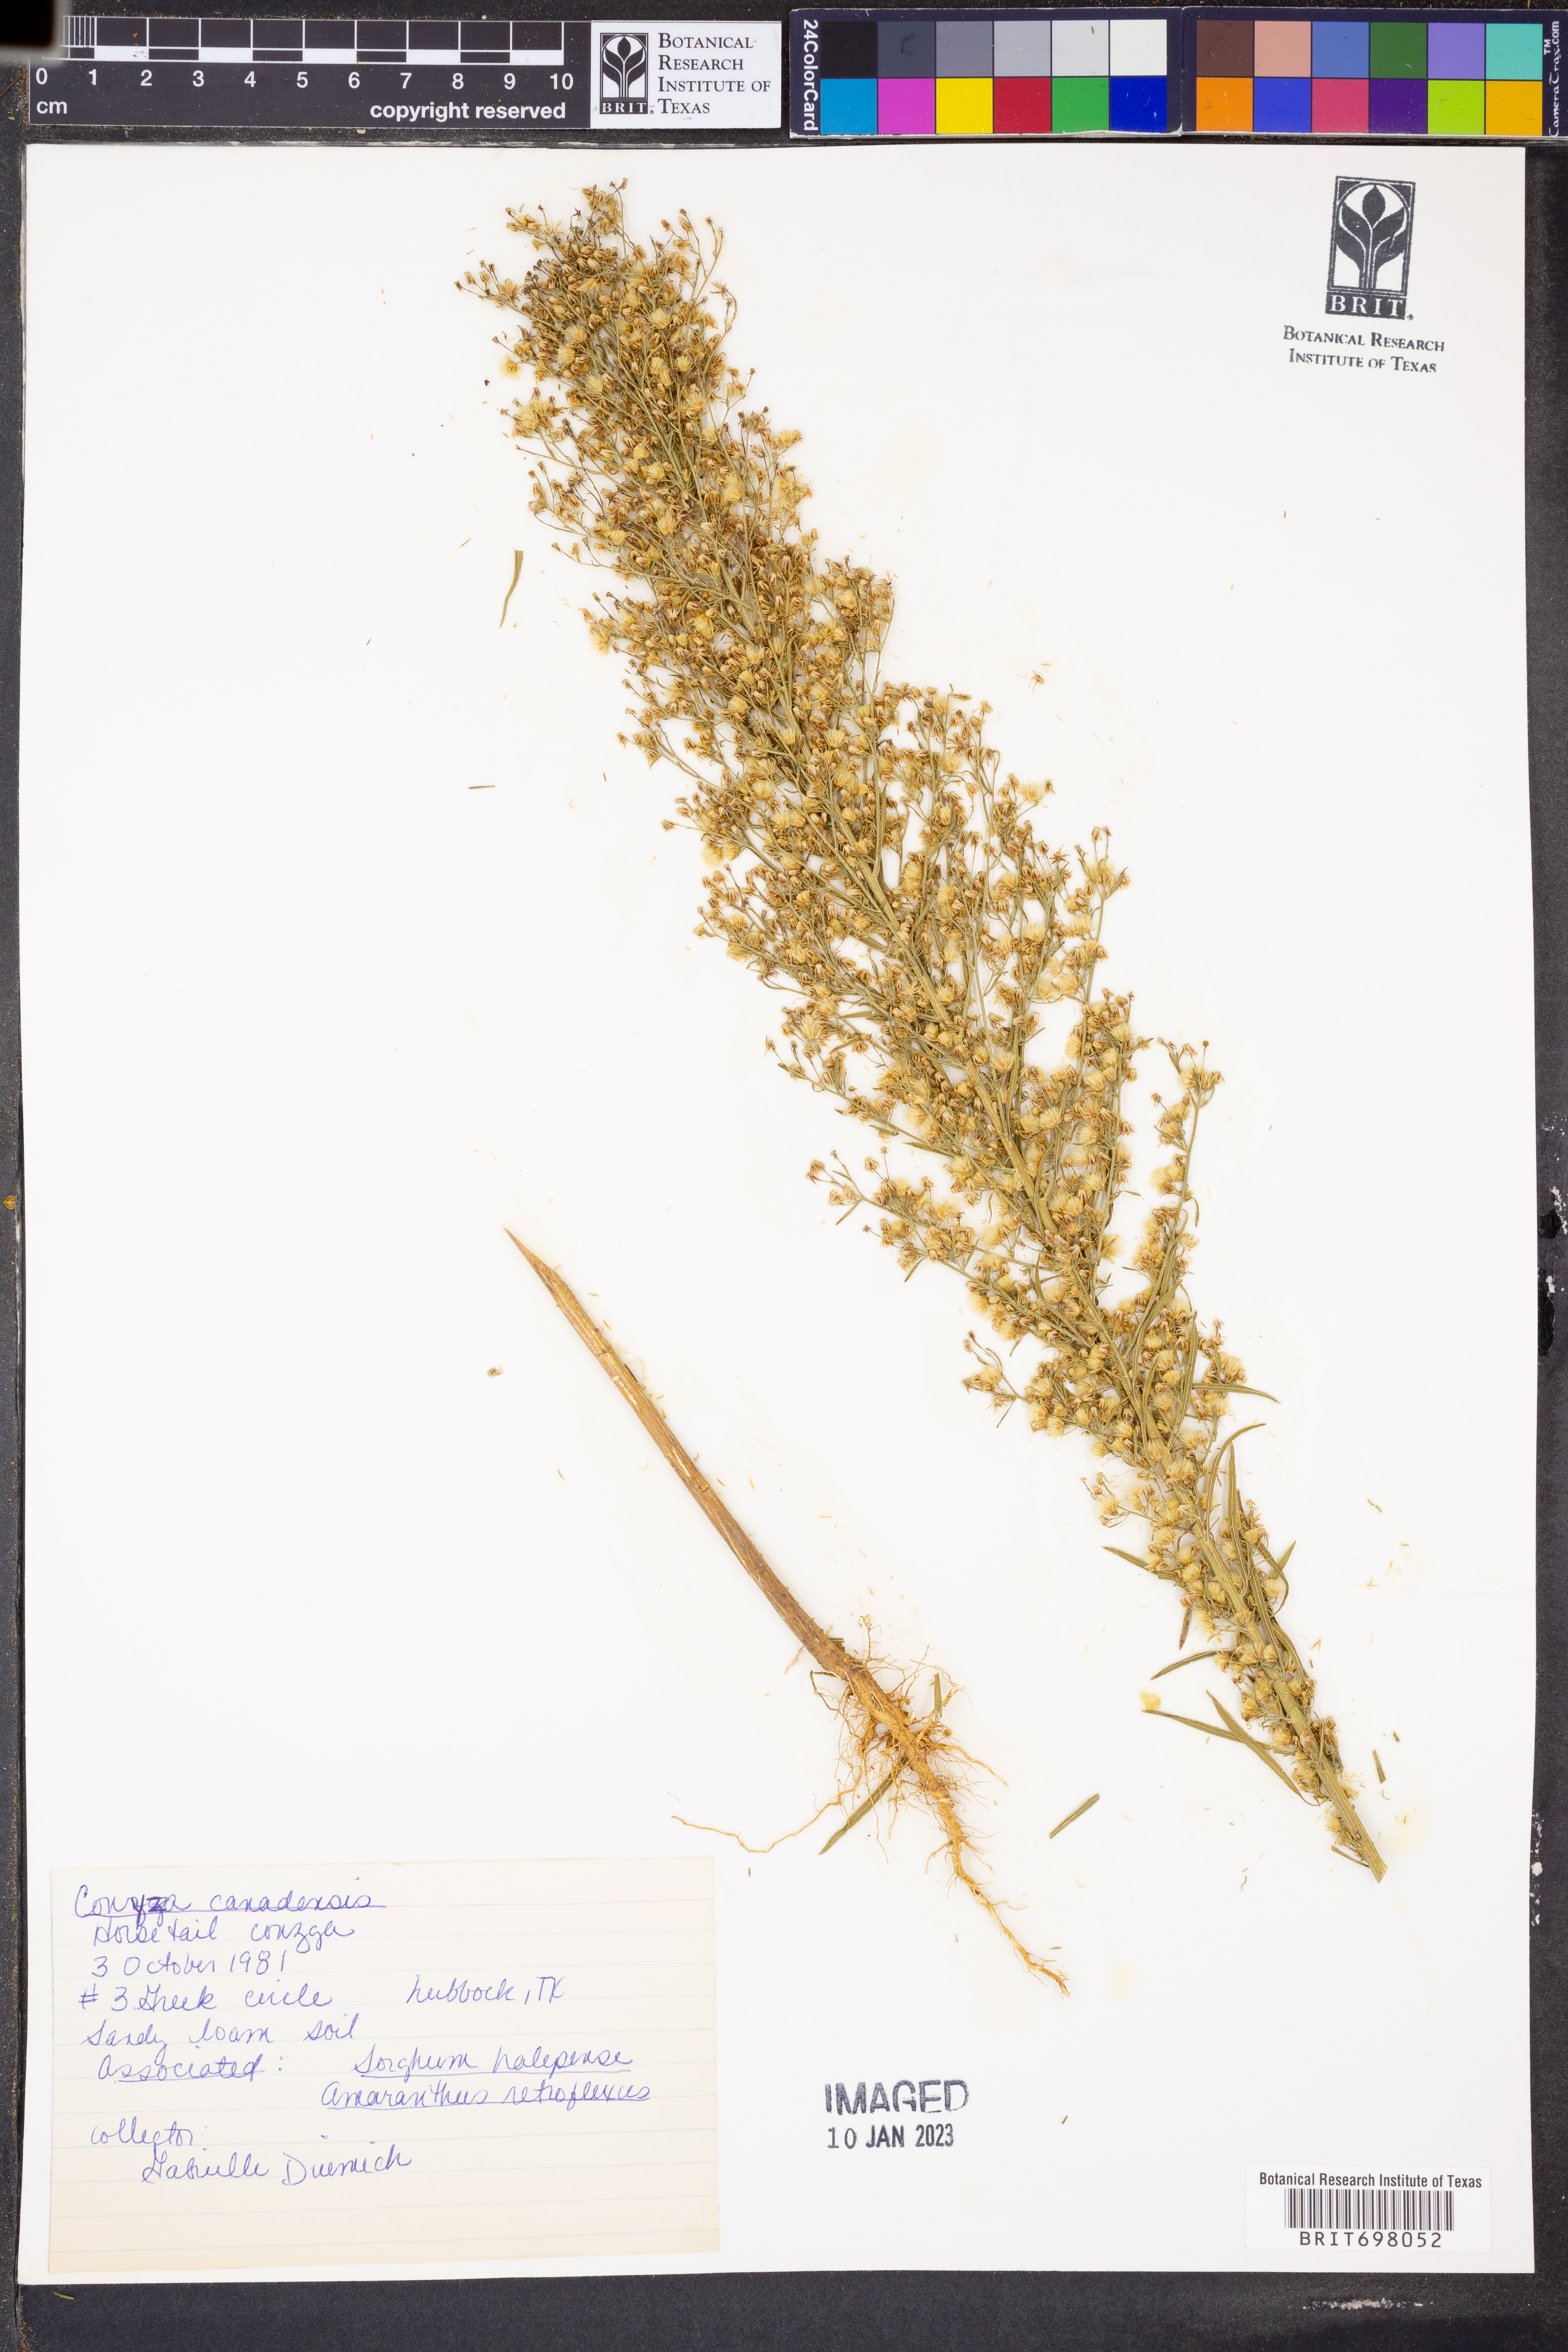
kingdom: Plantae
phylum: Tracheophyta
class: Magnoliopsida
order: Asterales
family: Asteraceae
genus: Erigeron
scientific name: Erigeron canadensis
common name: Canadian fleabane
